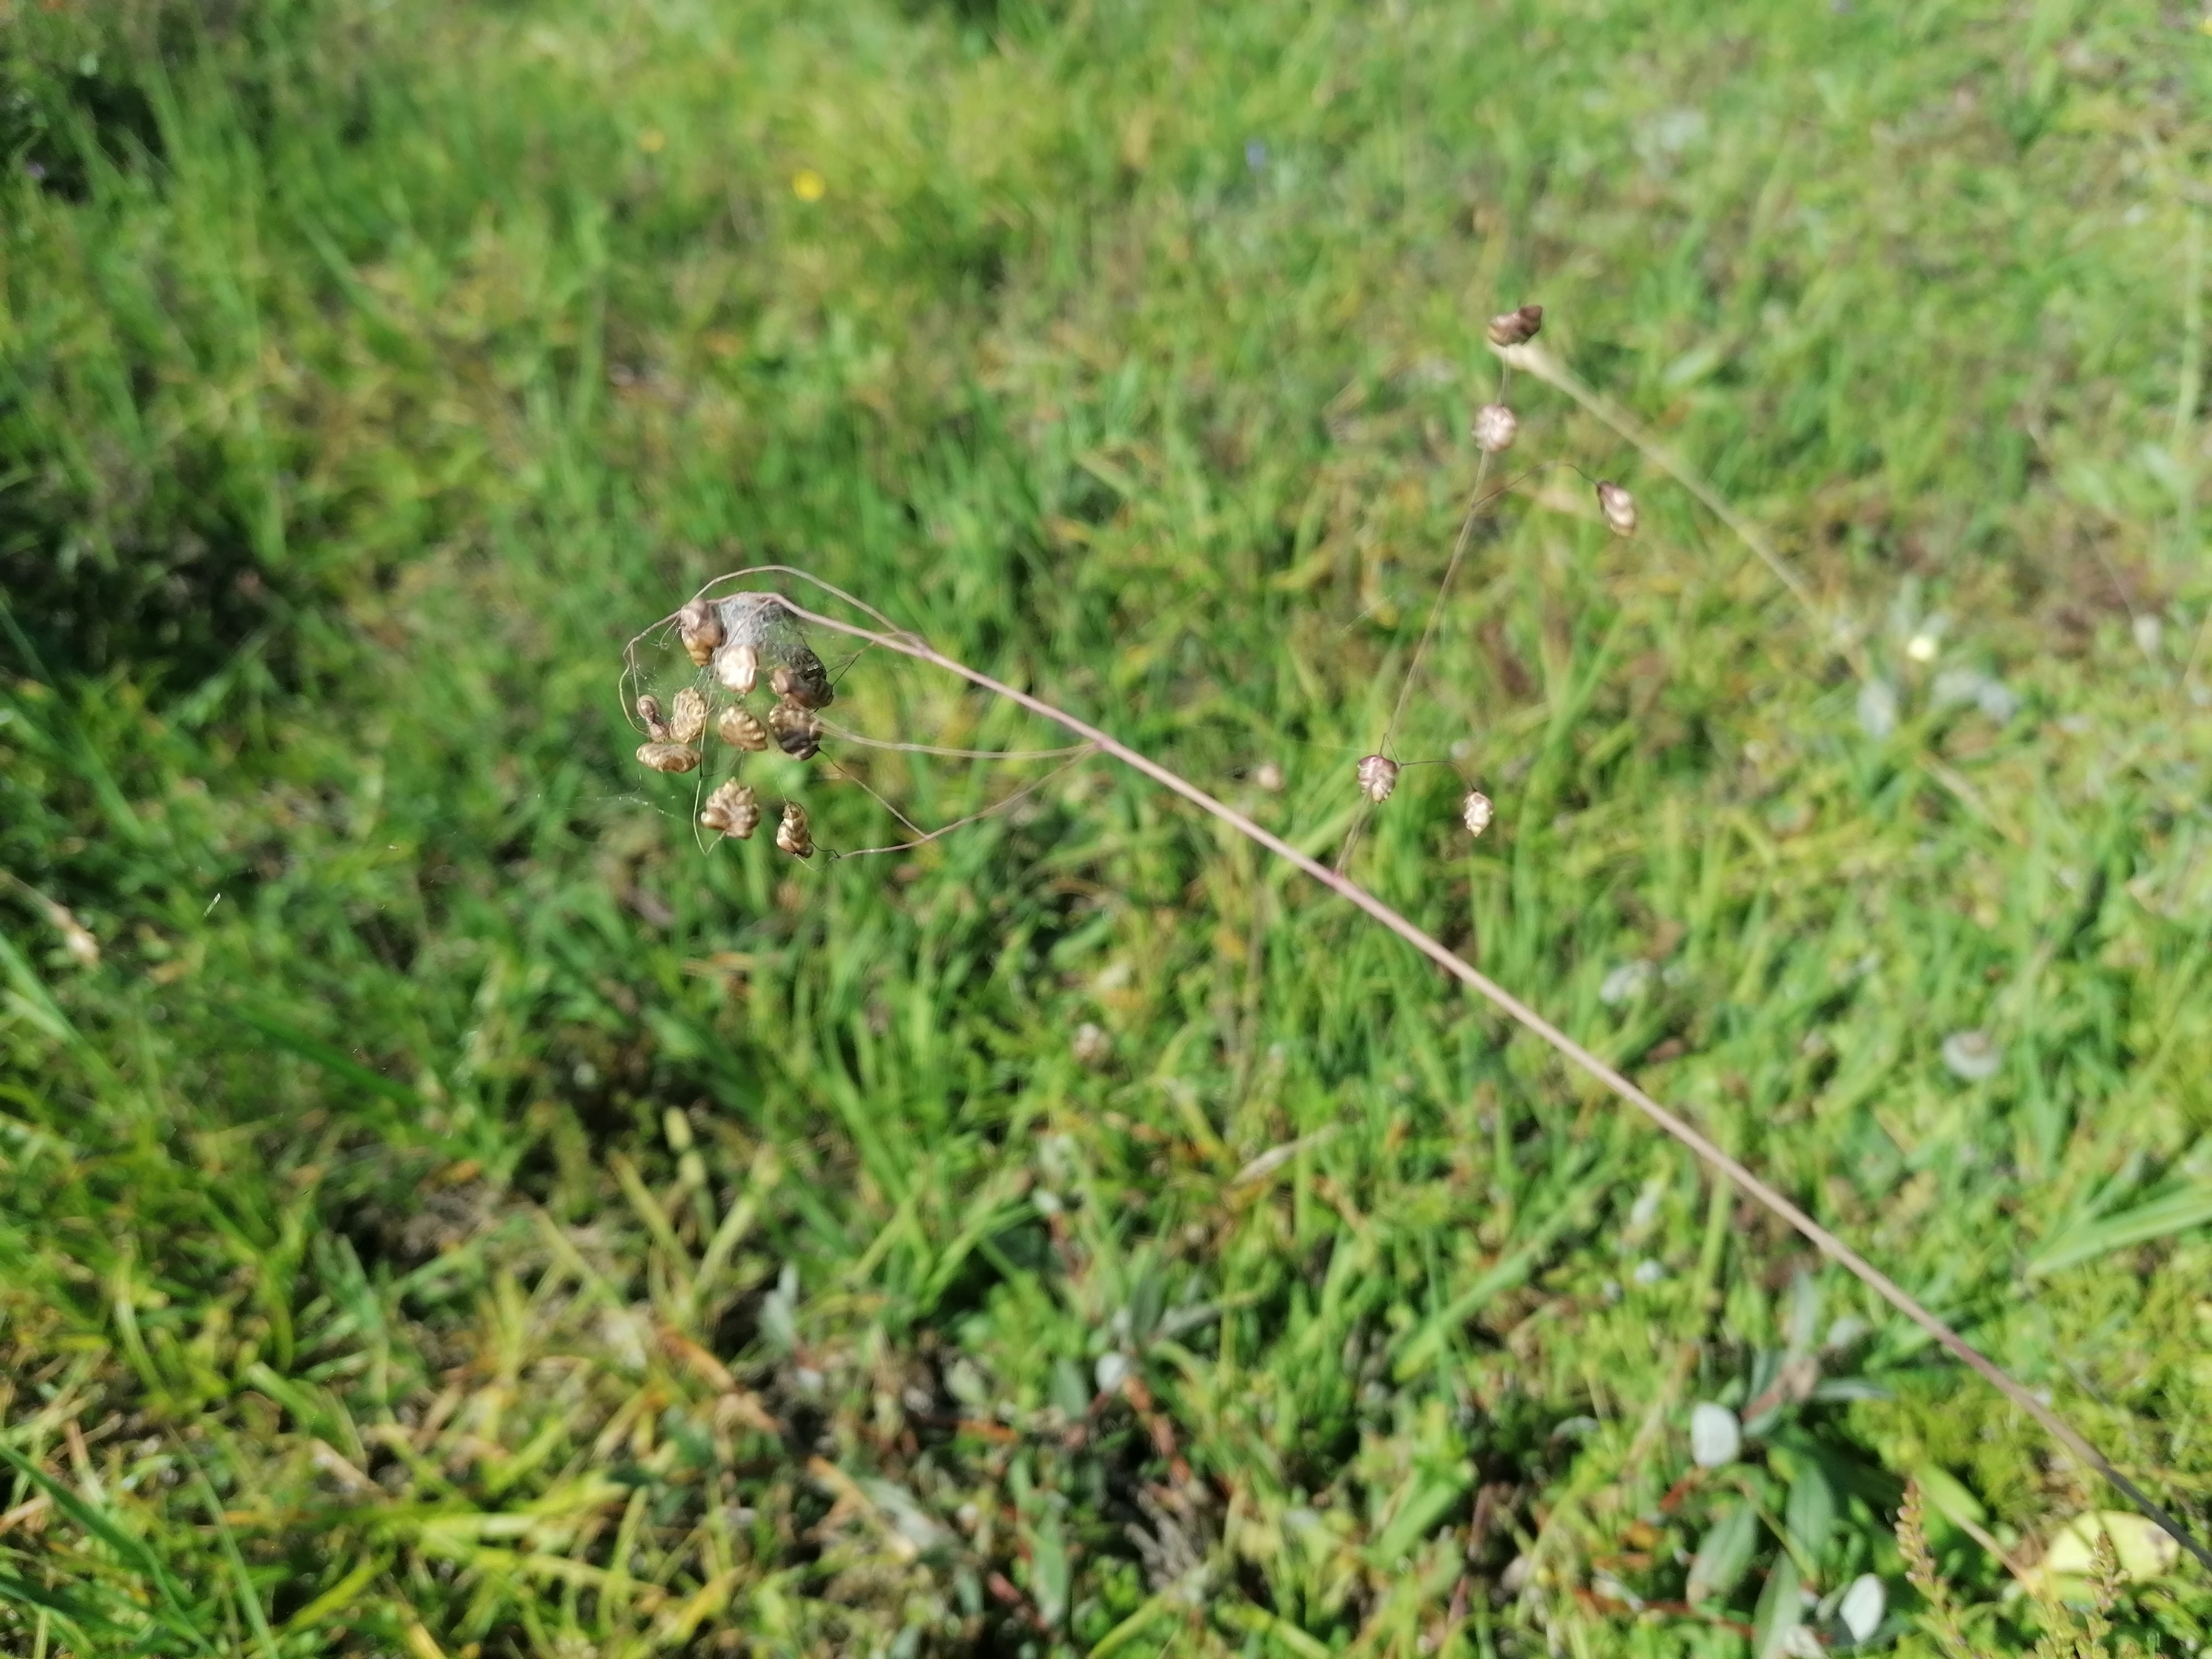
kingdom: Plantae
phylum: Tracheophyta
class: Liliopsida
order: Poales
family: Poaceae
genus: Briza
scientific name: Briza media
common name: Hjertegræs
